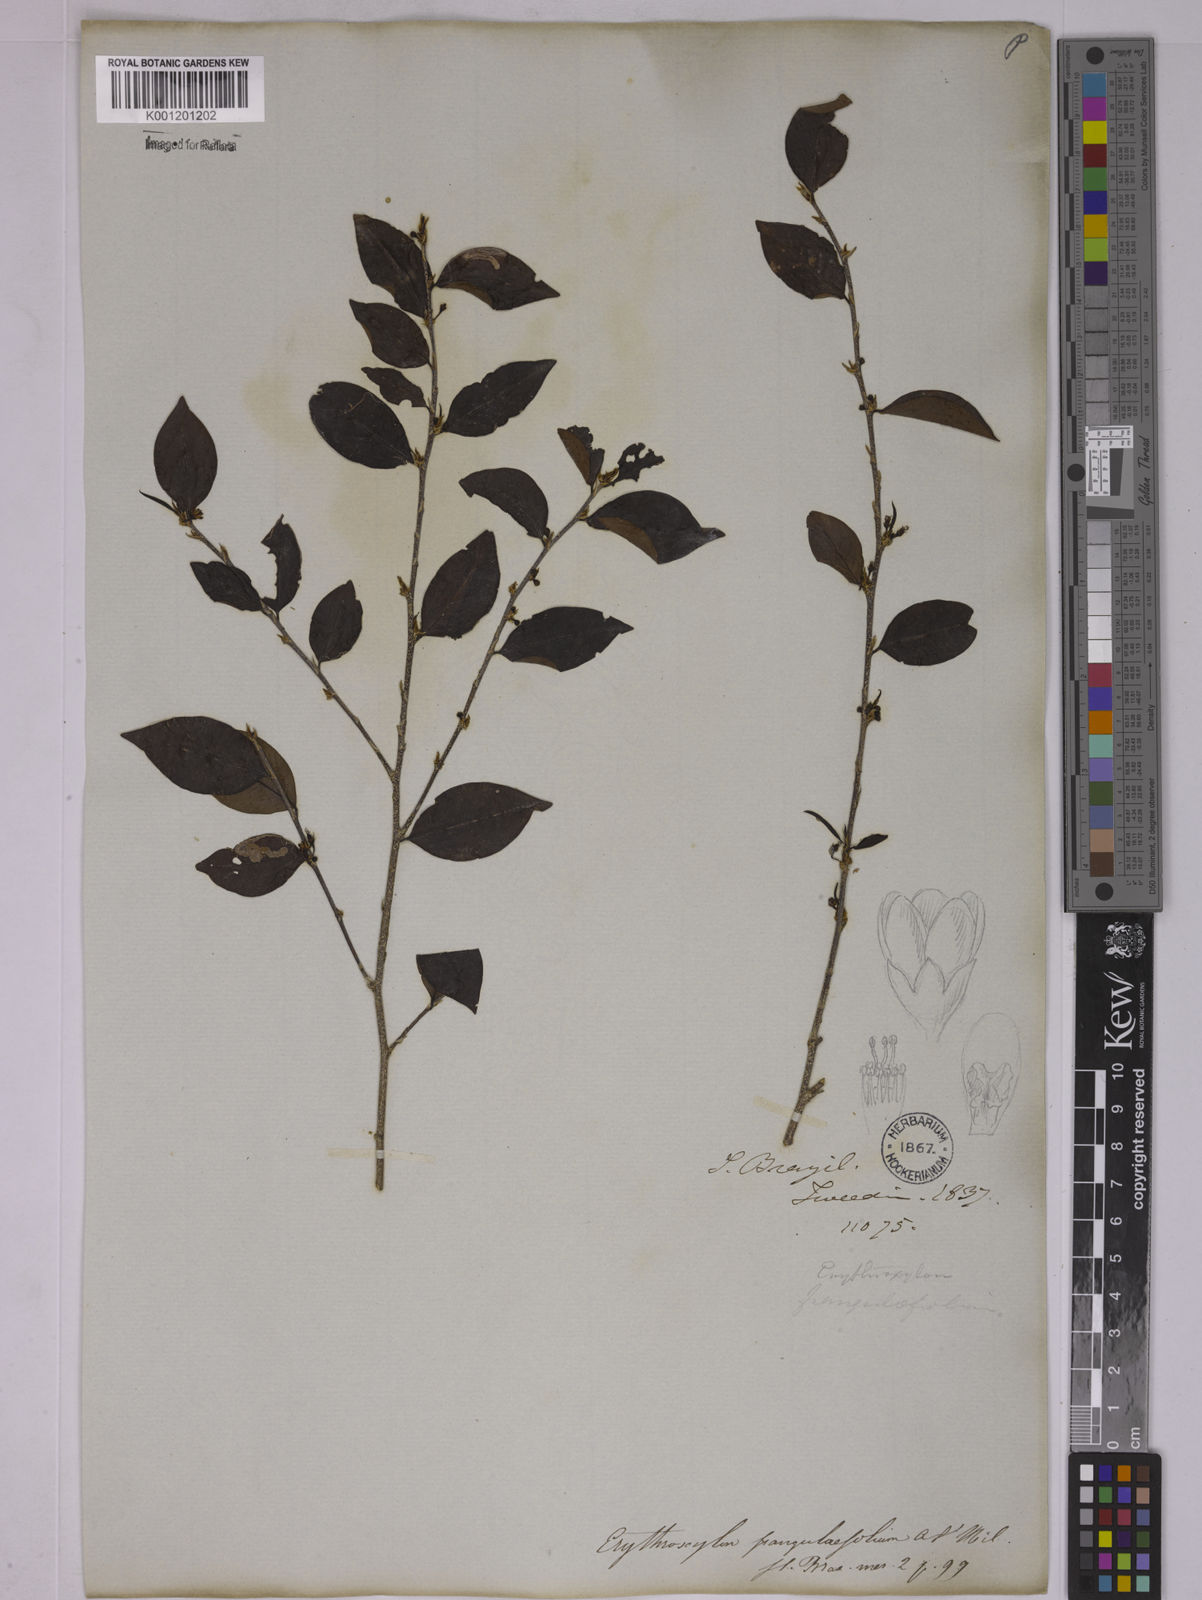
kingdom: Plantae
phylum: Tracheophyta
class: Magnoliopsida
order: Malpighiales
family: Erythroxylaceae
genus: Erythroxylum
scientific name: Erythroxylum frangulifolium
